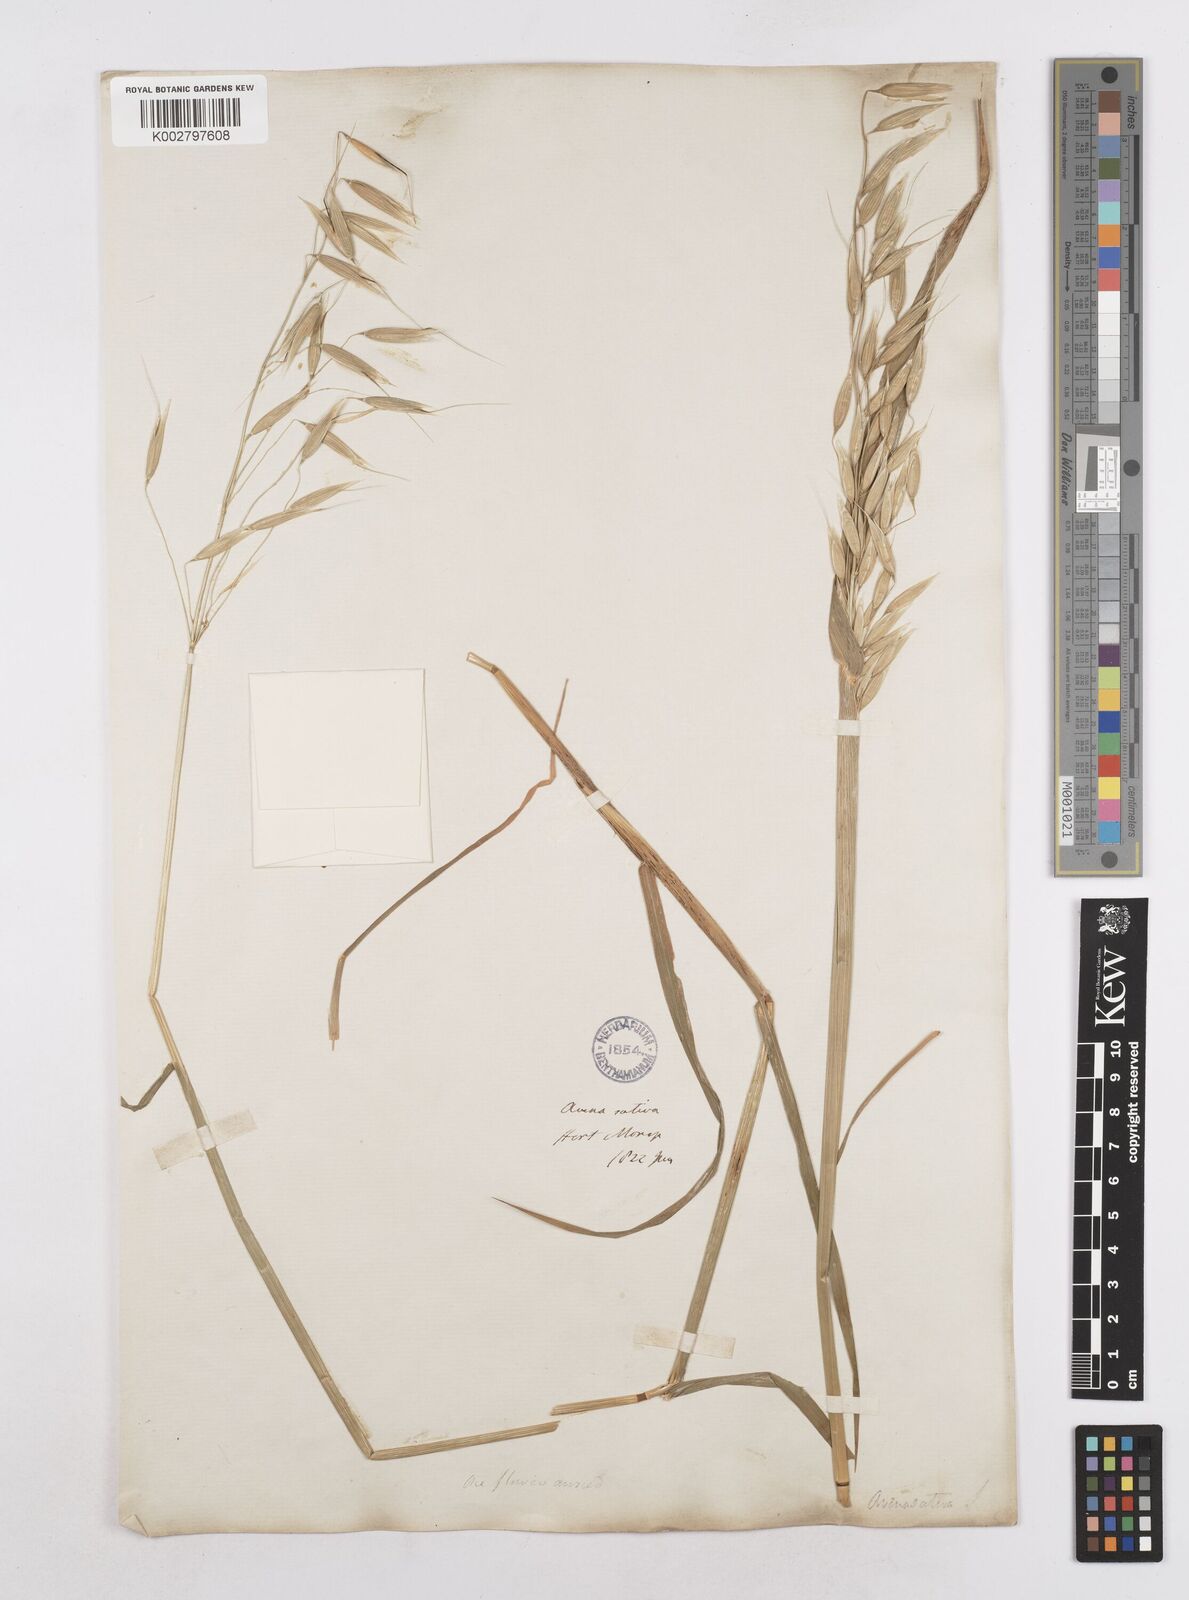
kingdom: Plantae
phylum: Tracheophyta
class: Liliopsida
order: Poales
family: Poaceae
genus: Avena
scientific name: Avena sativa
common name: Oat
